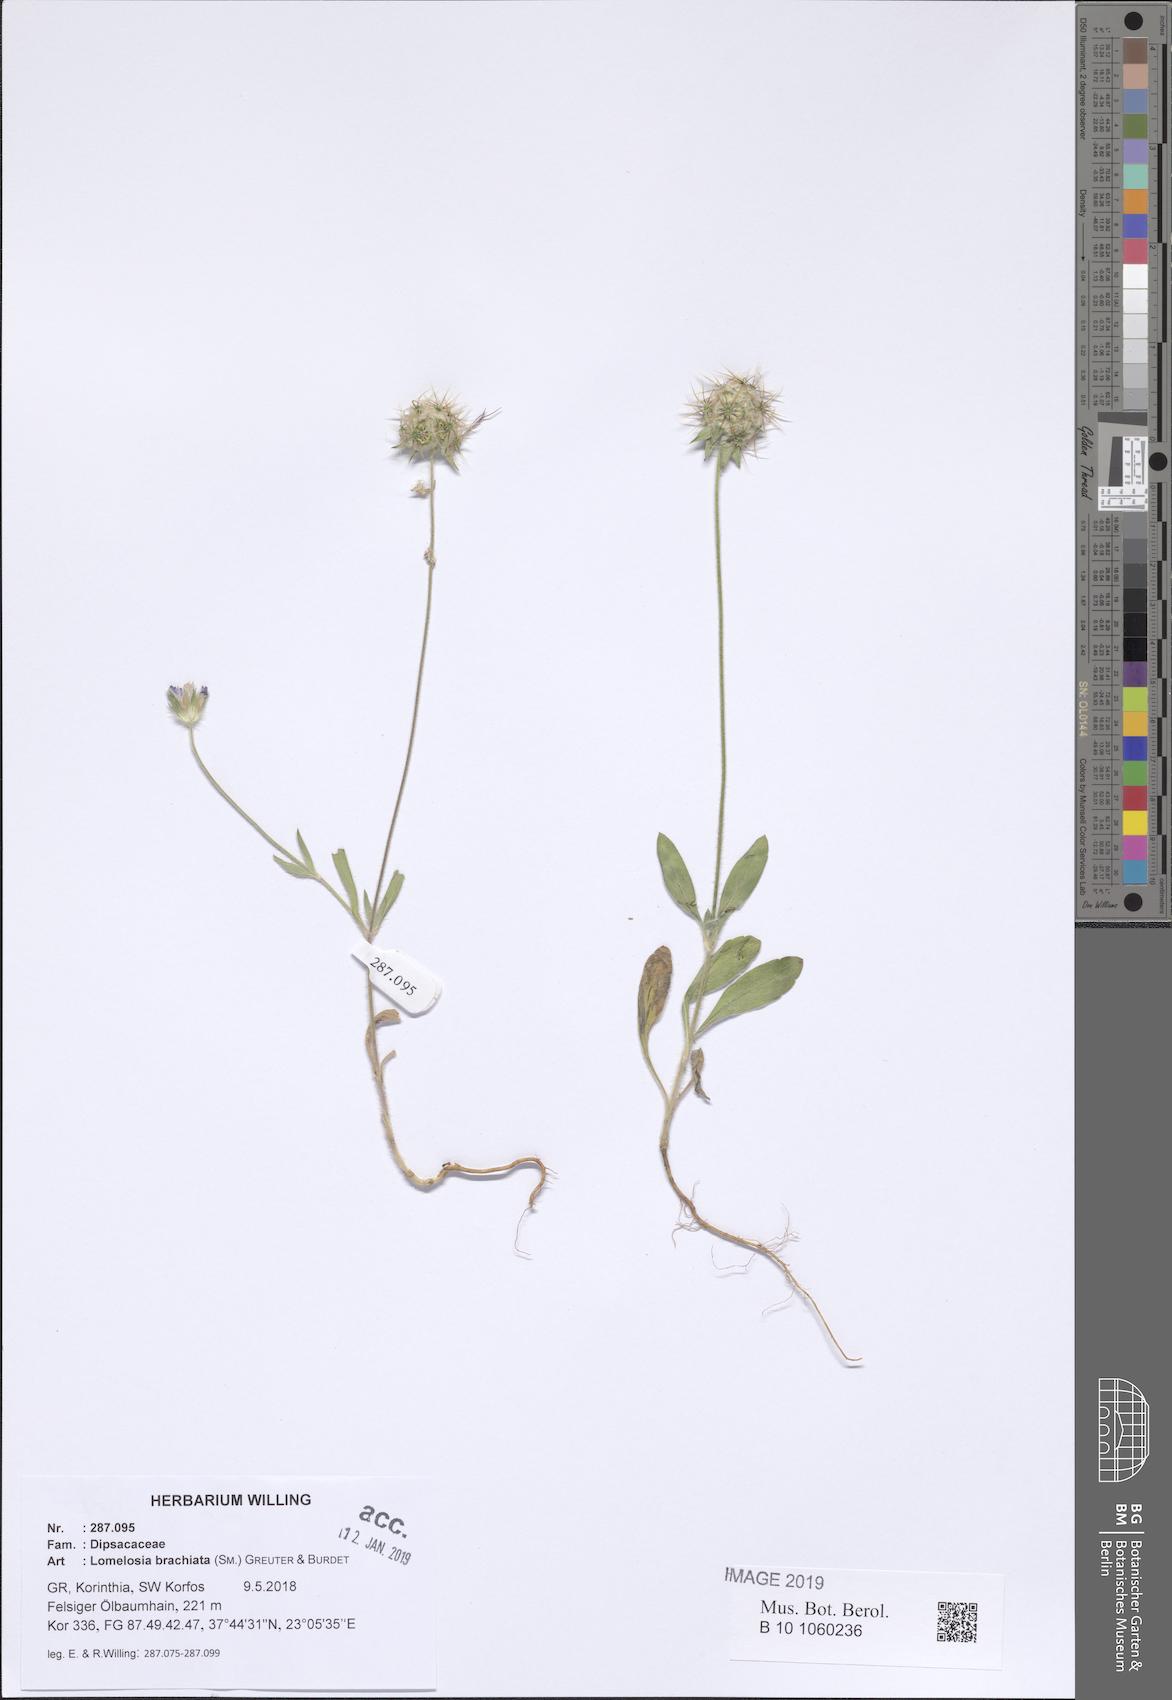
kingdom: Plantae
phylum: Tracheophyta
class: Magnoliopsida
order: Dipsacales
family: Caprifoliaceae
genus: Lomelosia
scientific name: Lomelosia brachiata
